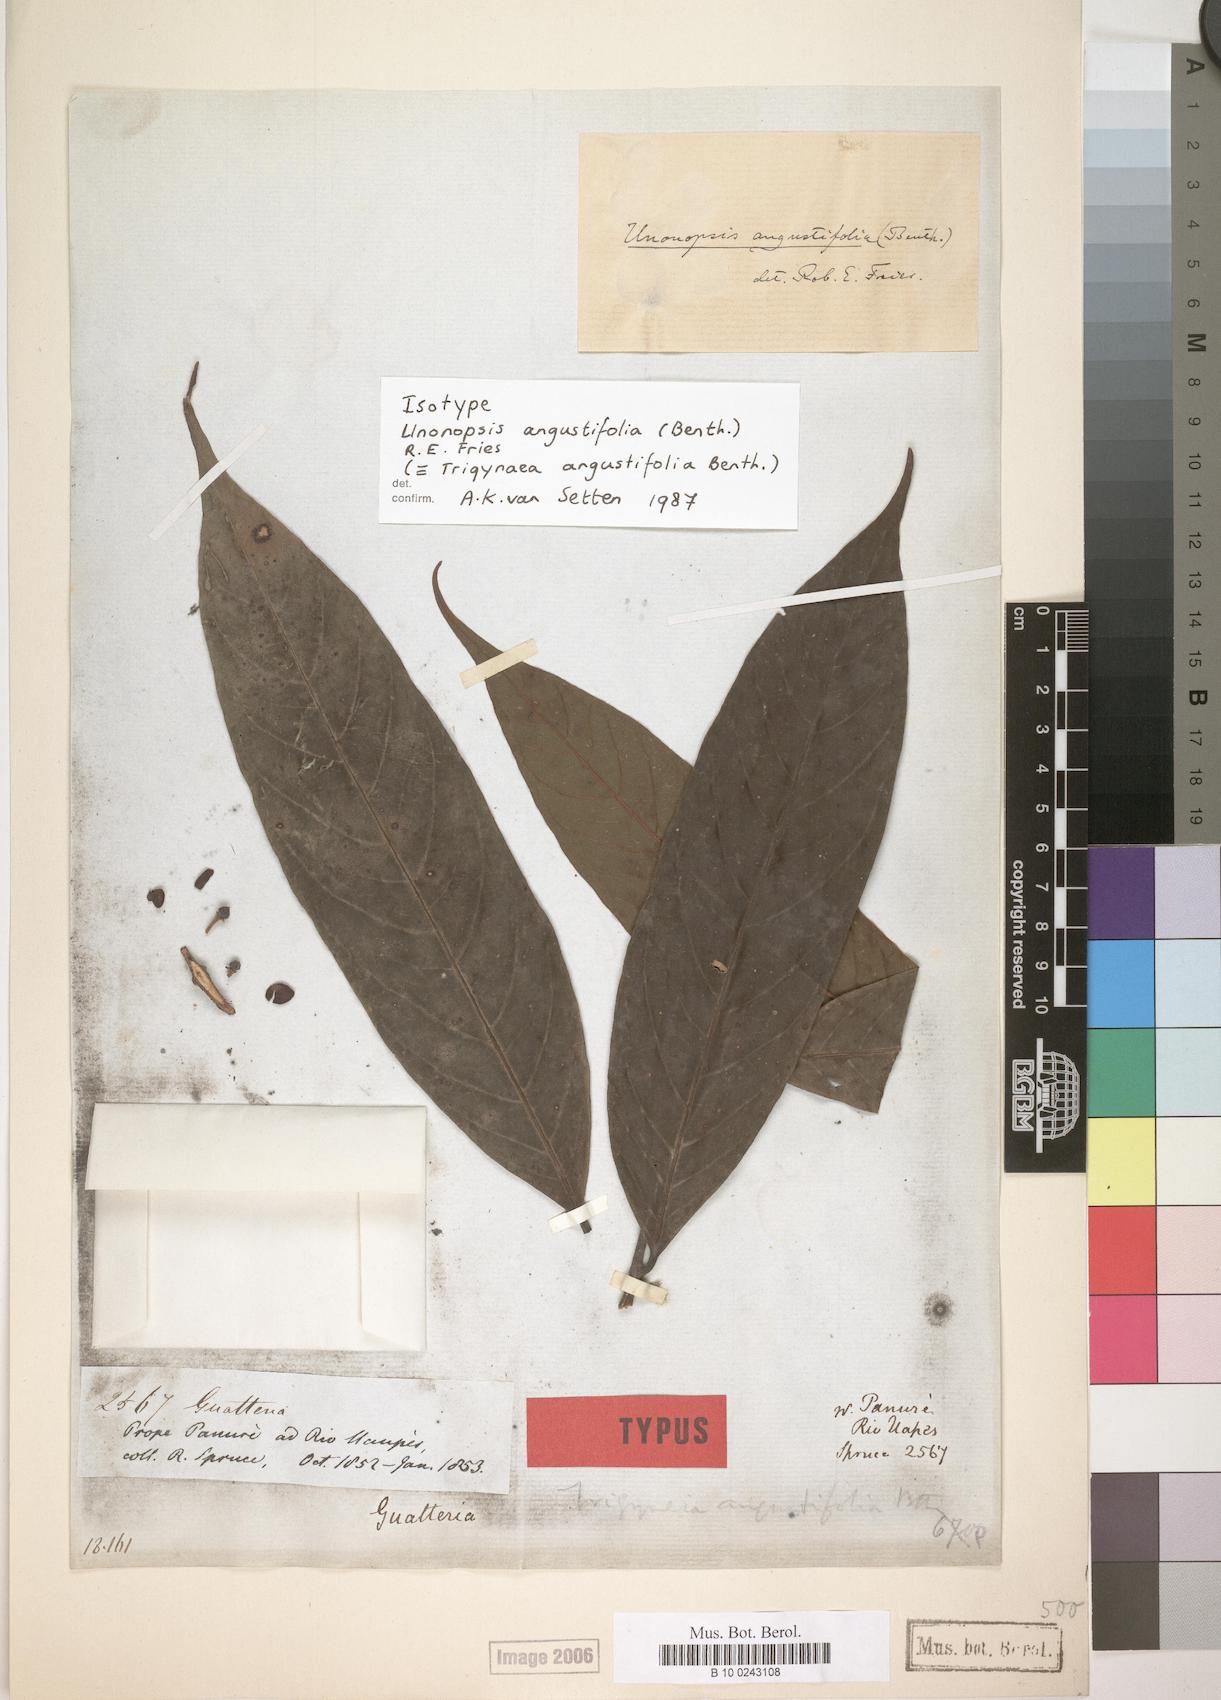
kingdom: Plantae
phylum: Tracheophyta
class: Magnoliopsida
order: Magnoliales
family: Annonaceae
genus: Unonopsis
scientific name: Unonopsis guatterioides
